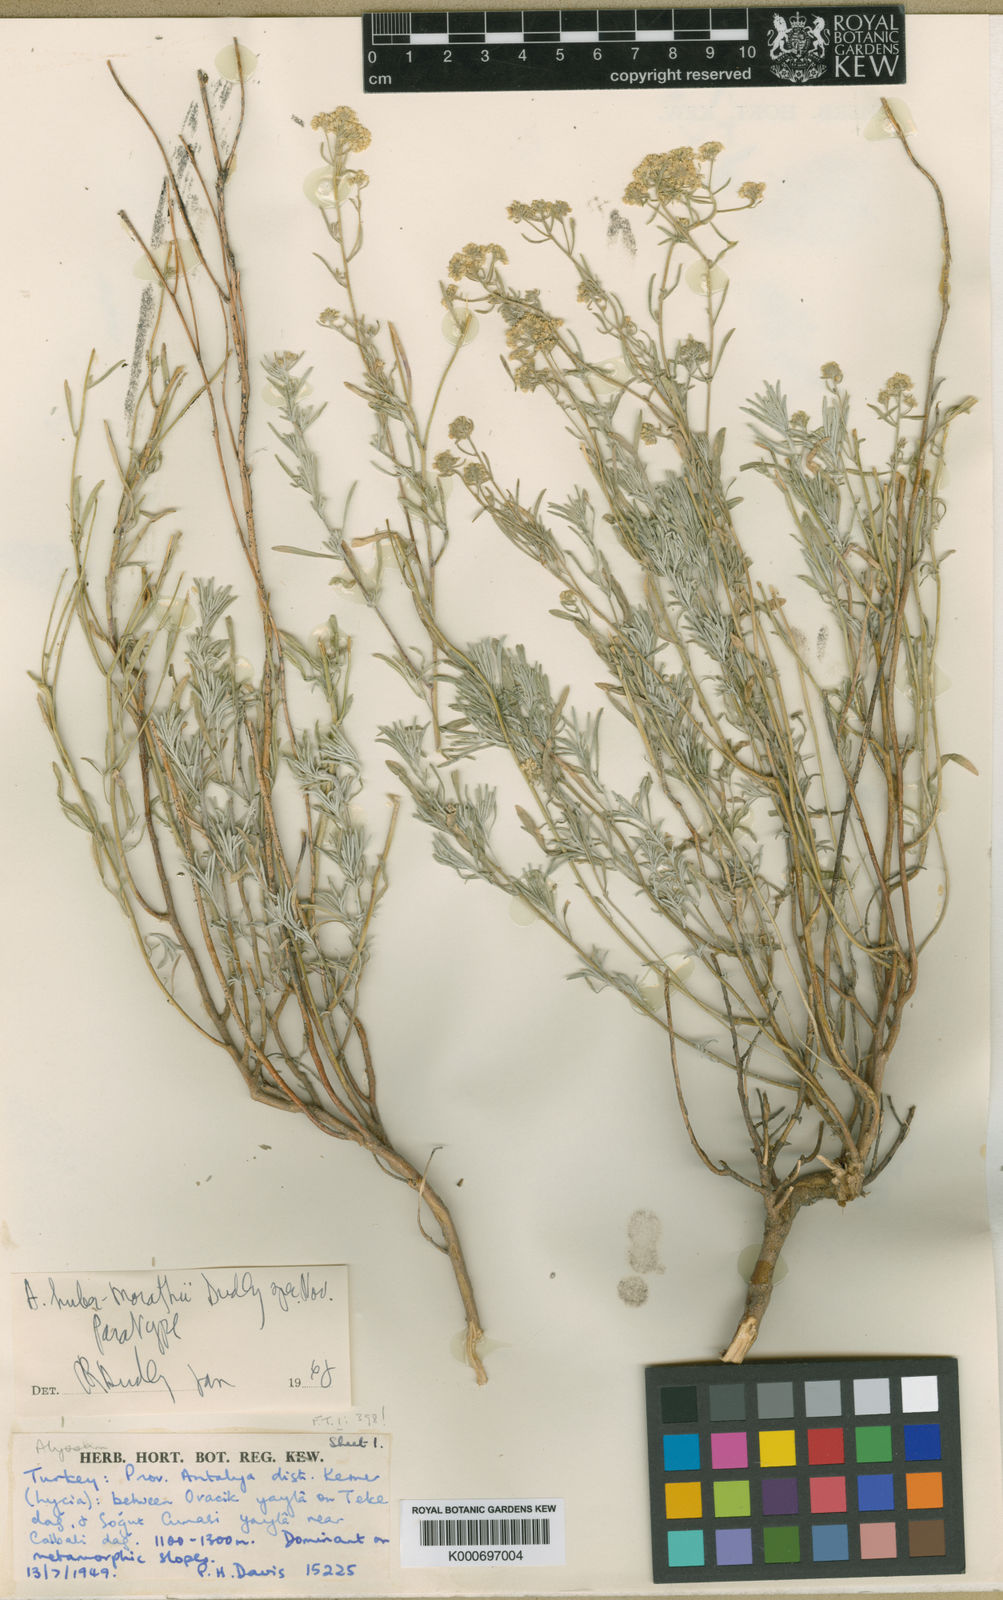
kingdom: Plantae
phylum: Tracheophyta
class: Magnoliopsida
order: Brassicales
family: Brassicaceae
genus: Odontarrhena
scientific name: Odontarrhena huber-morathii
